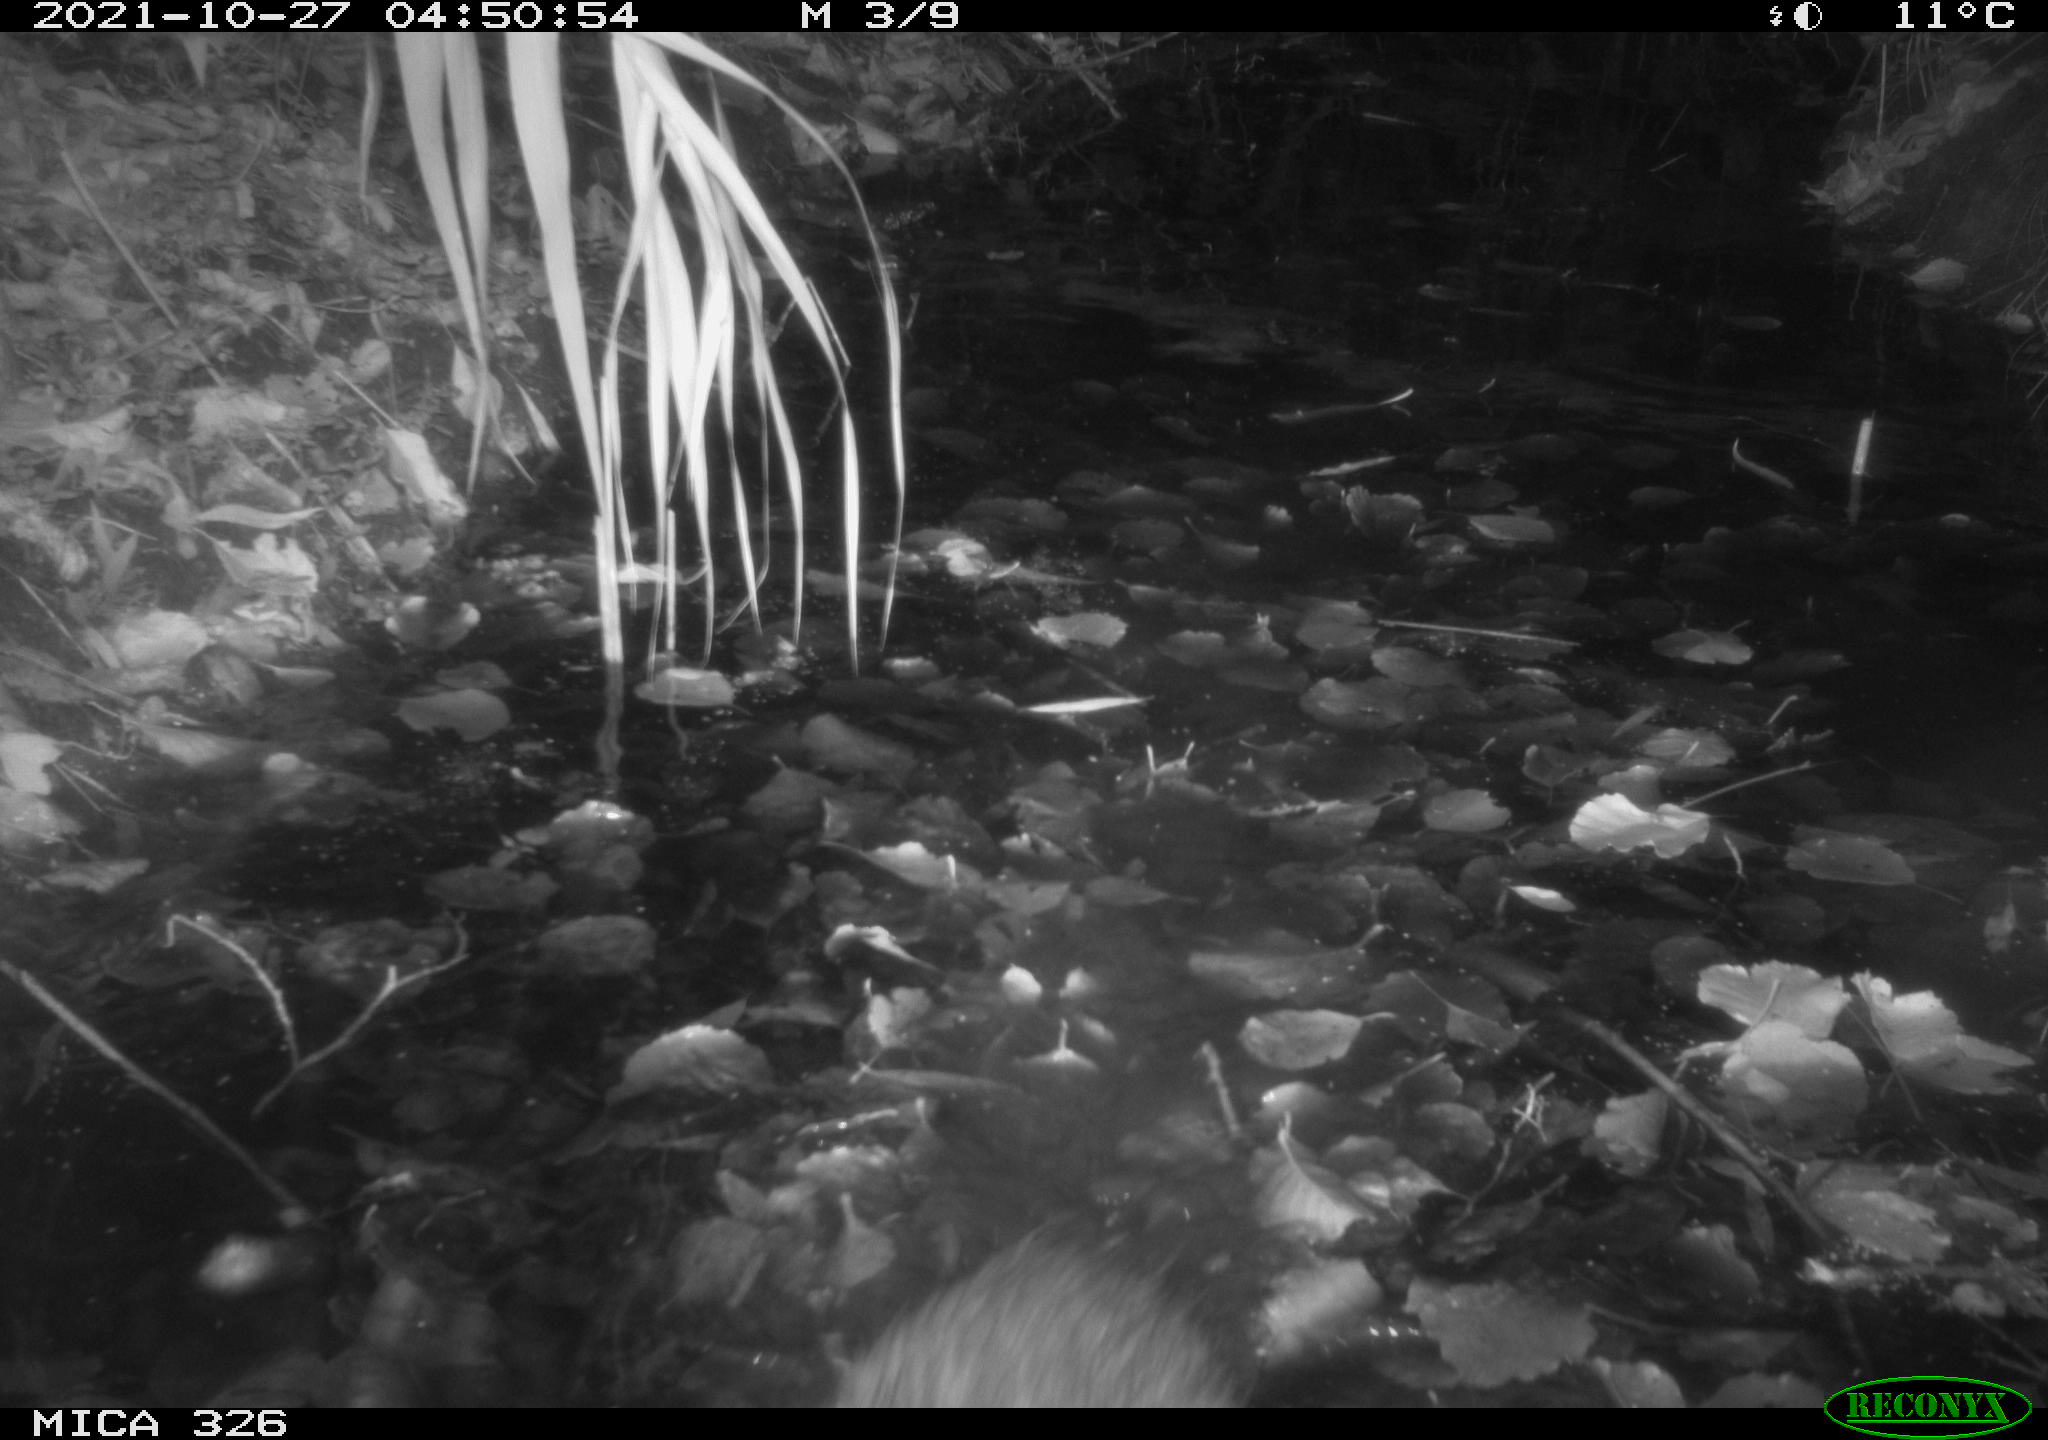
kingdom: Animalia
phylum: Chordata
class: Mammalia
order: Rodentia
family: Myocastoridae
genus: Myocastor
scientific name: Myocastor coypus
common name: Coypu
